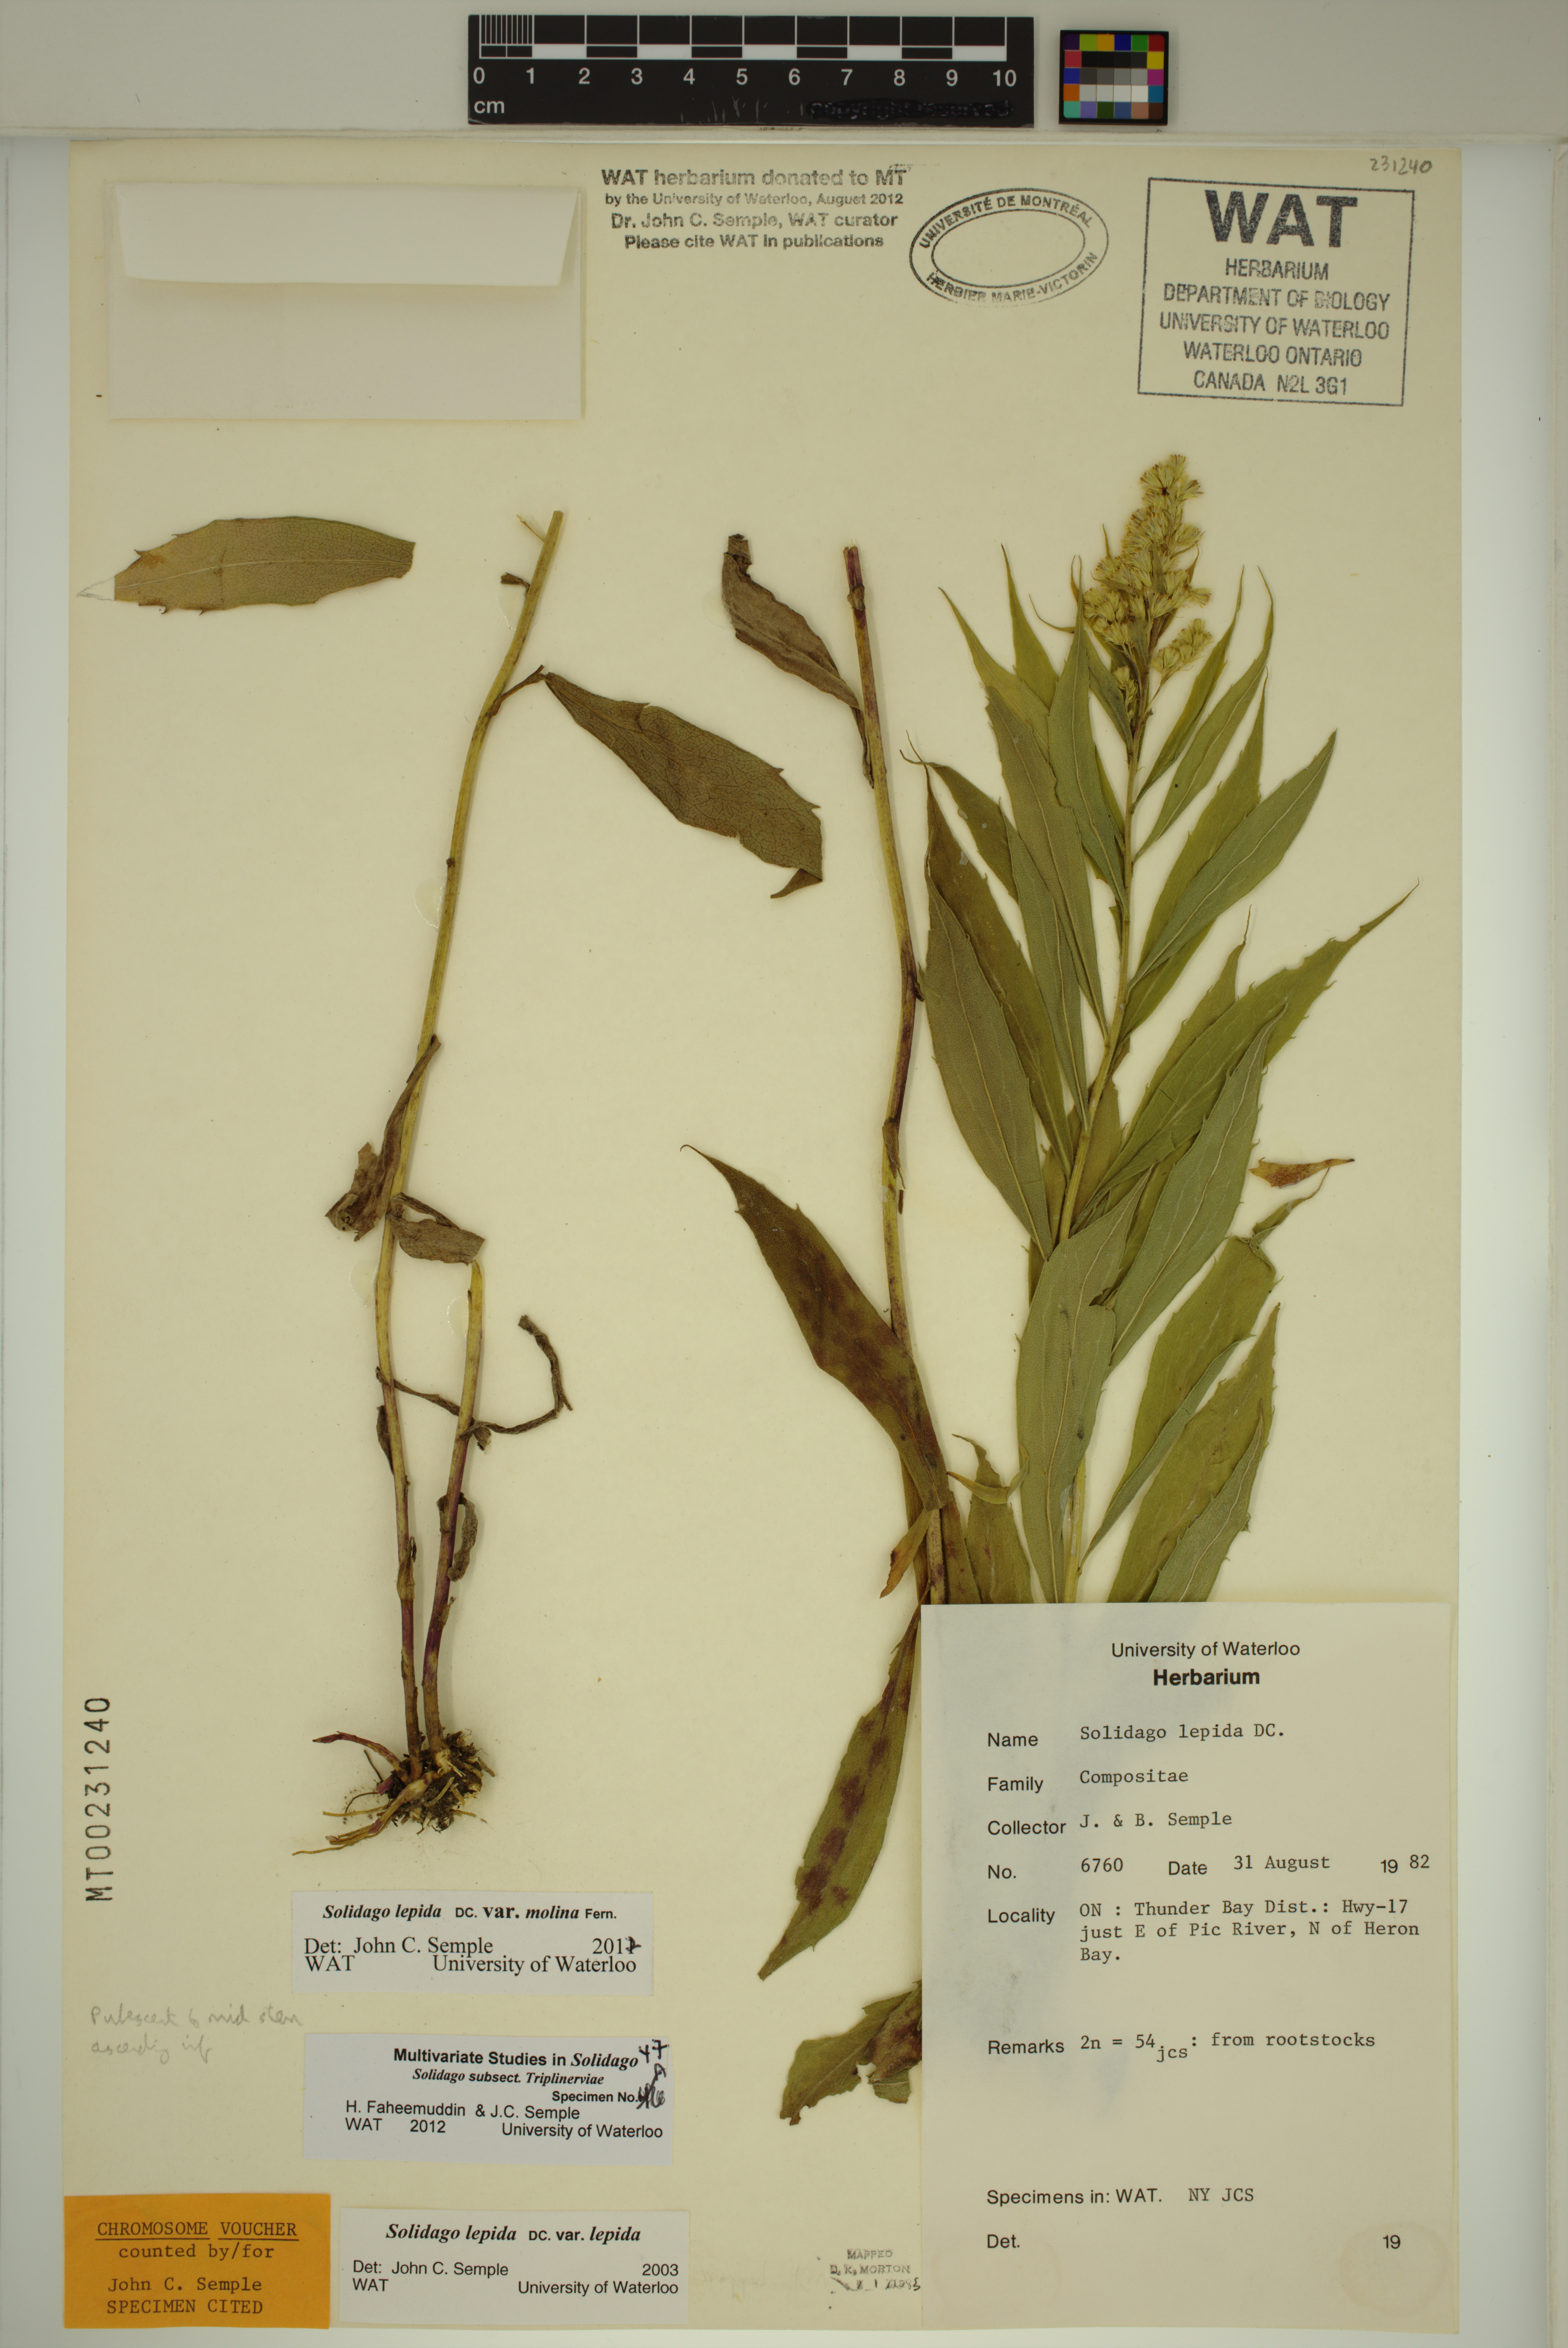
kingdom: Plantae
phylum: Tracheophyta
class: Magnoliopsida
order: Asterales
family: Asteraceae
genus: Solidago
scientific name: Solidago fallax
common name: Big-toothed canada goldenrod
